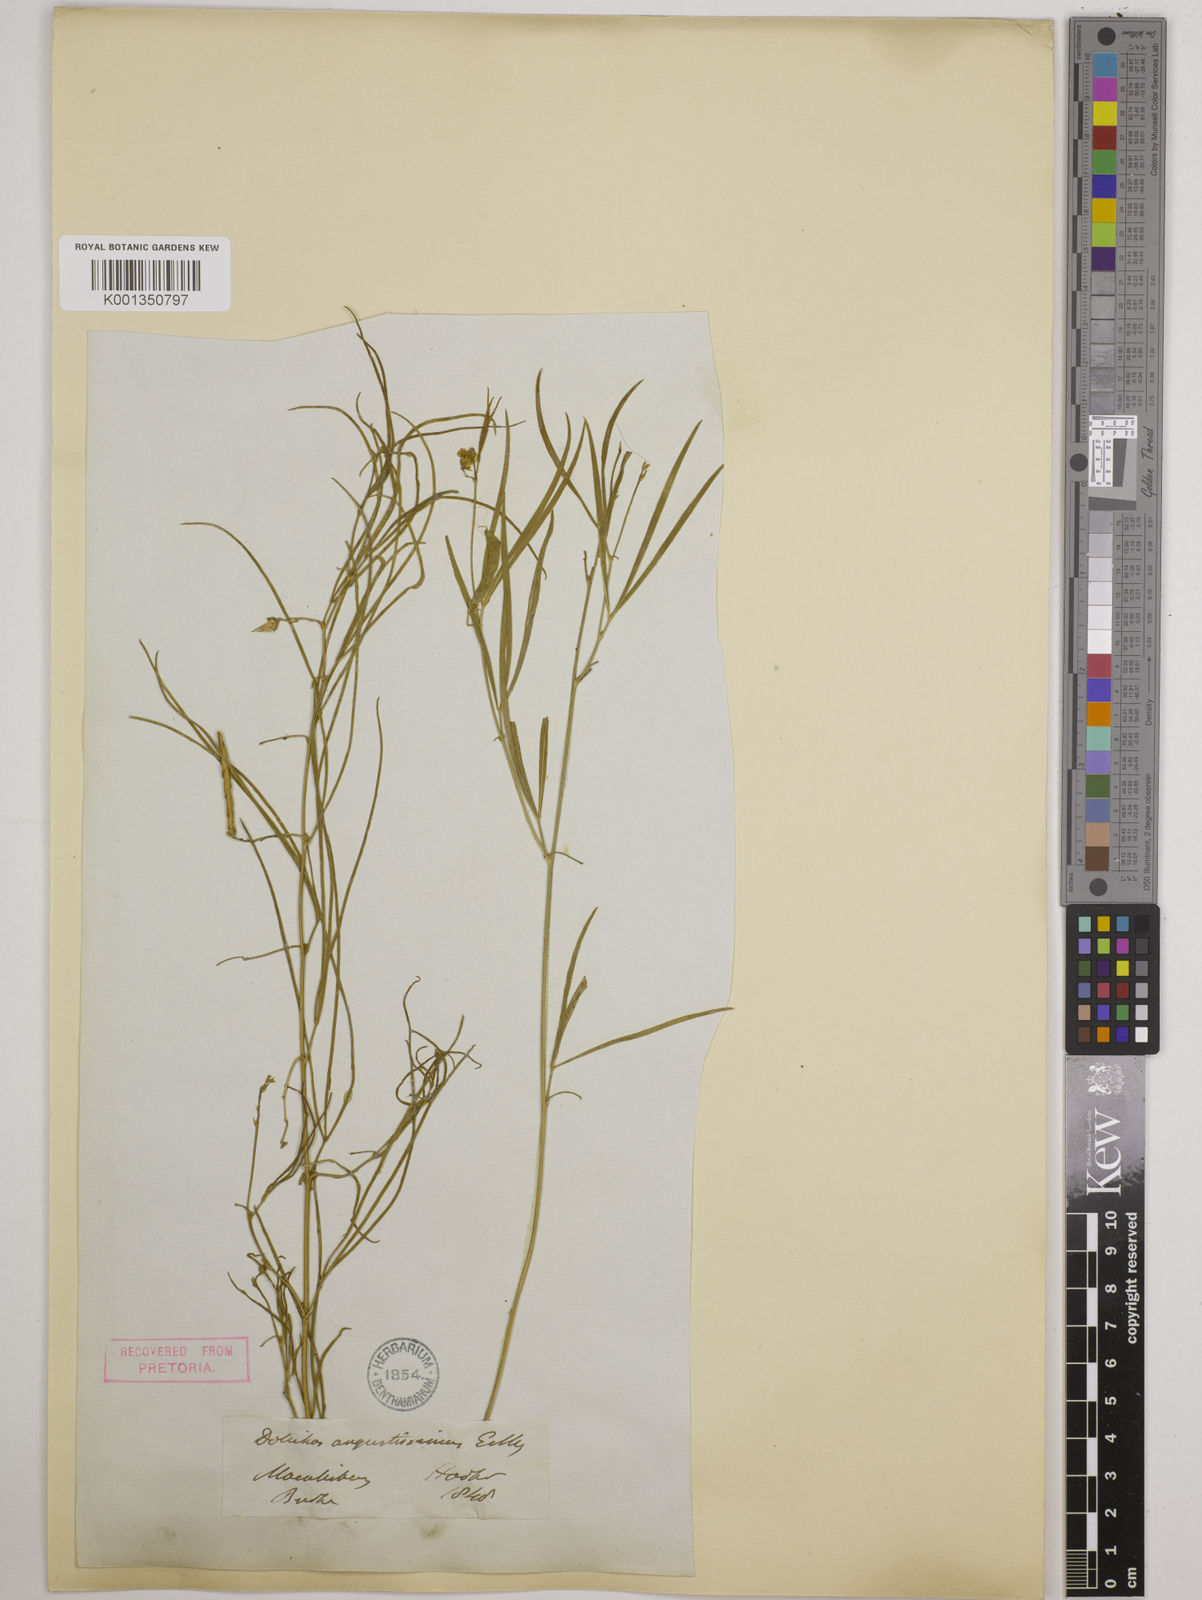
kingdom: Plantae
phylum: Tracheophyta
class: Magnoliopsida
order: Fabales
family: Fabaceae
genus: Dolichos
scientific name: Dolichos
